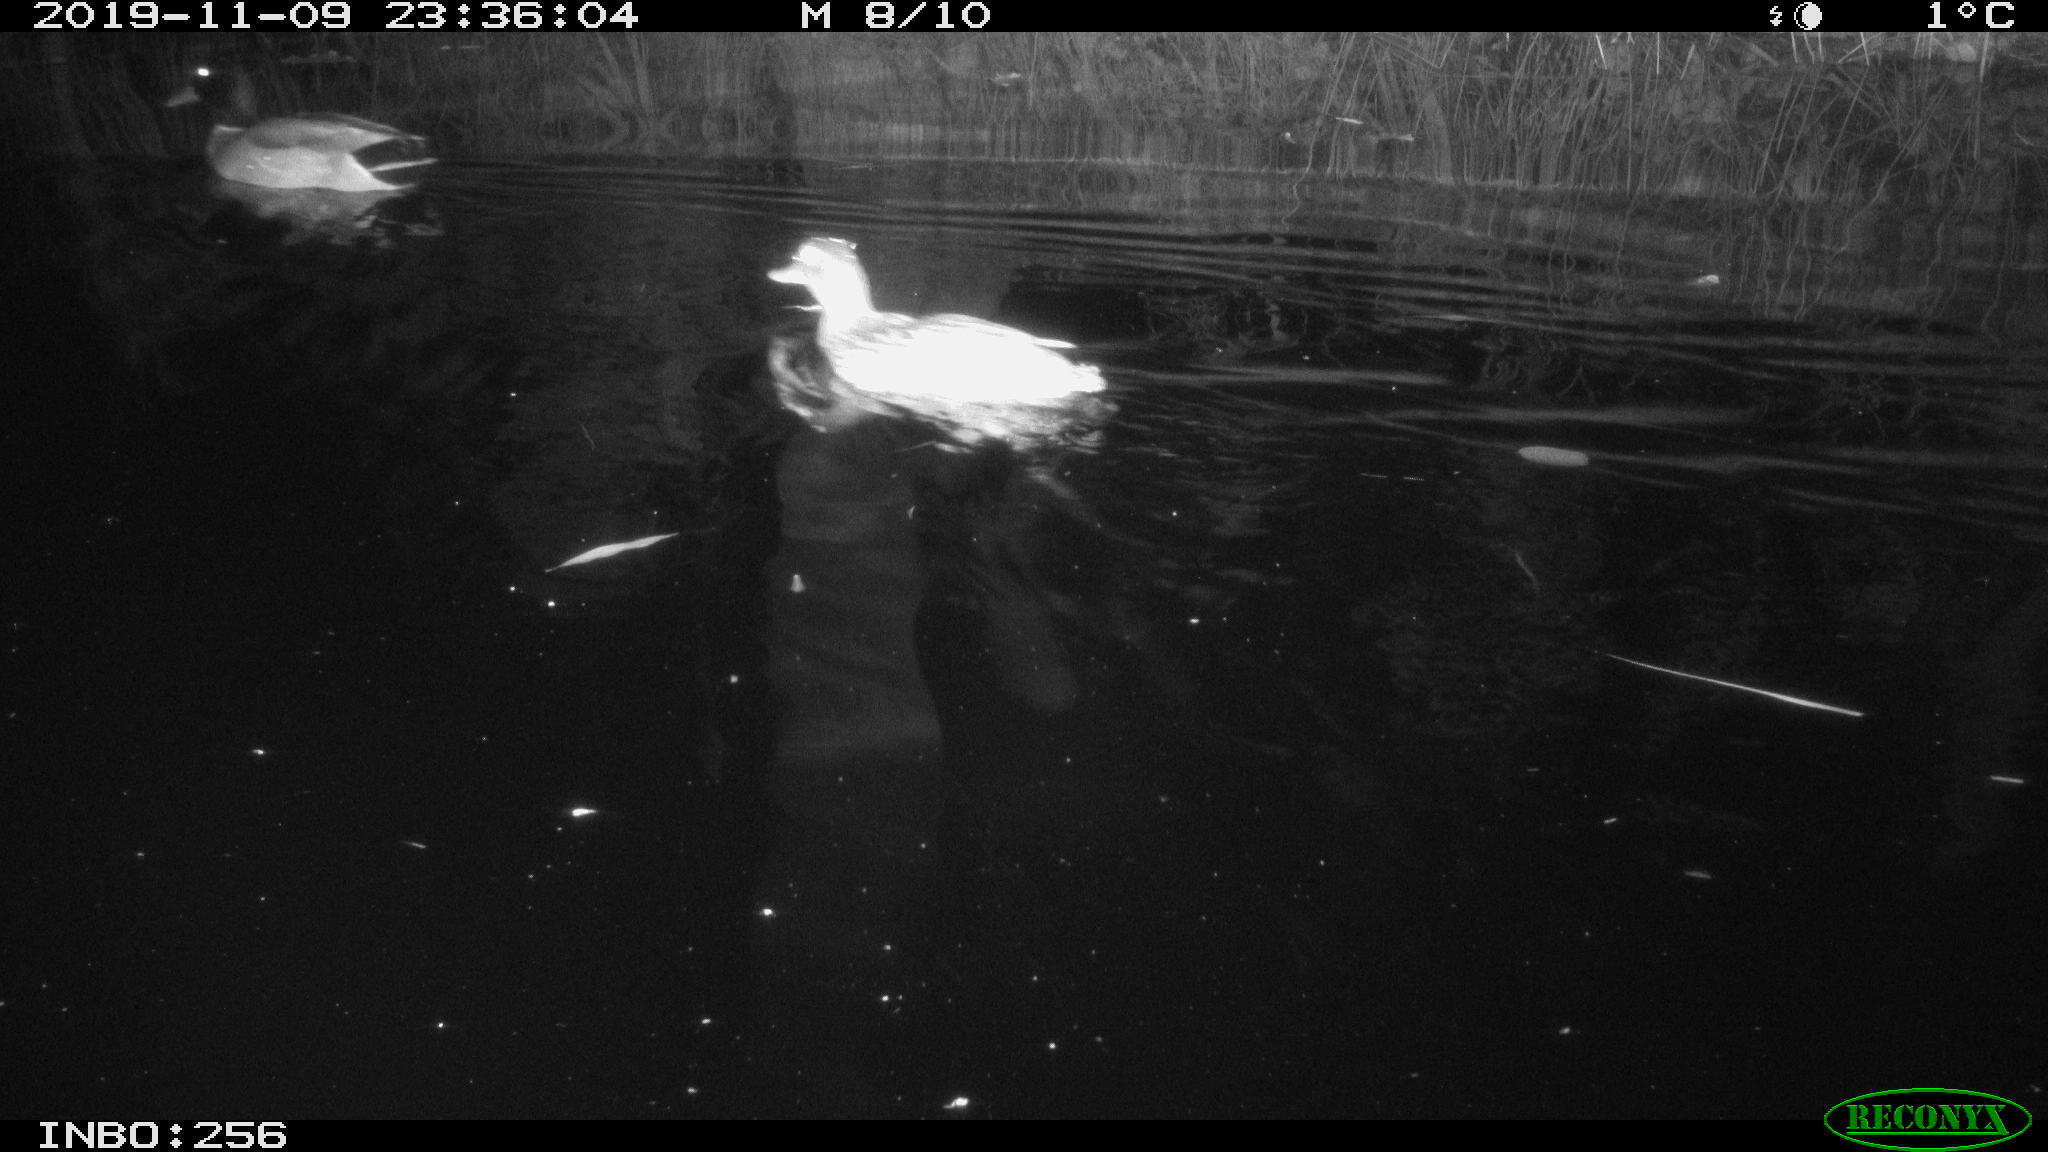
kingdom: Animalia
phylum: Chordata
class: Aves
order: Anseriformes
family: Anatidae
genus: Anas
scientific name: Anas platyrhynchos
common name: Mallard
